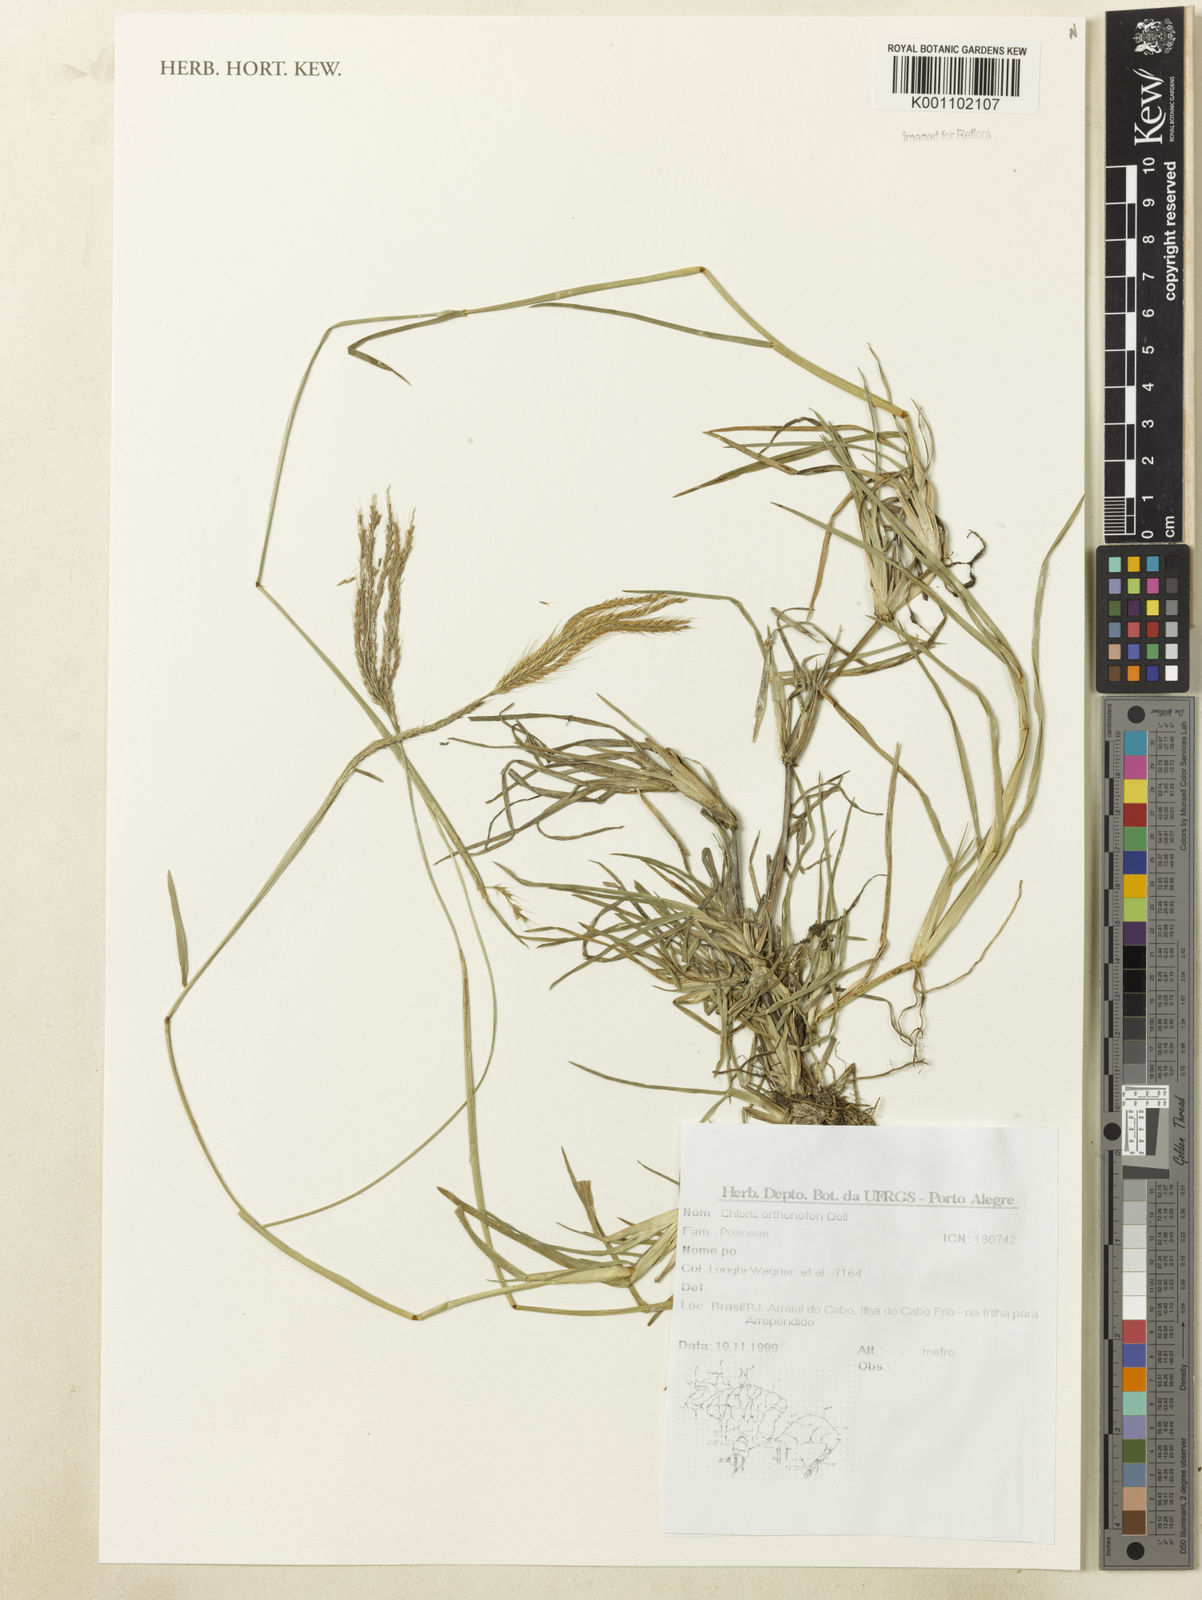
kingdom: Plantae
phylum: Tracheophyta
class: Liliopsida
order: Poales
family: Poaceae
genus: Chloris
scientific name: Chloris
